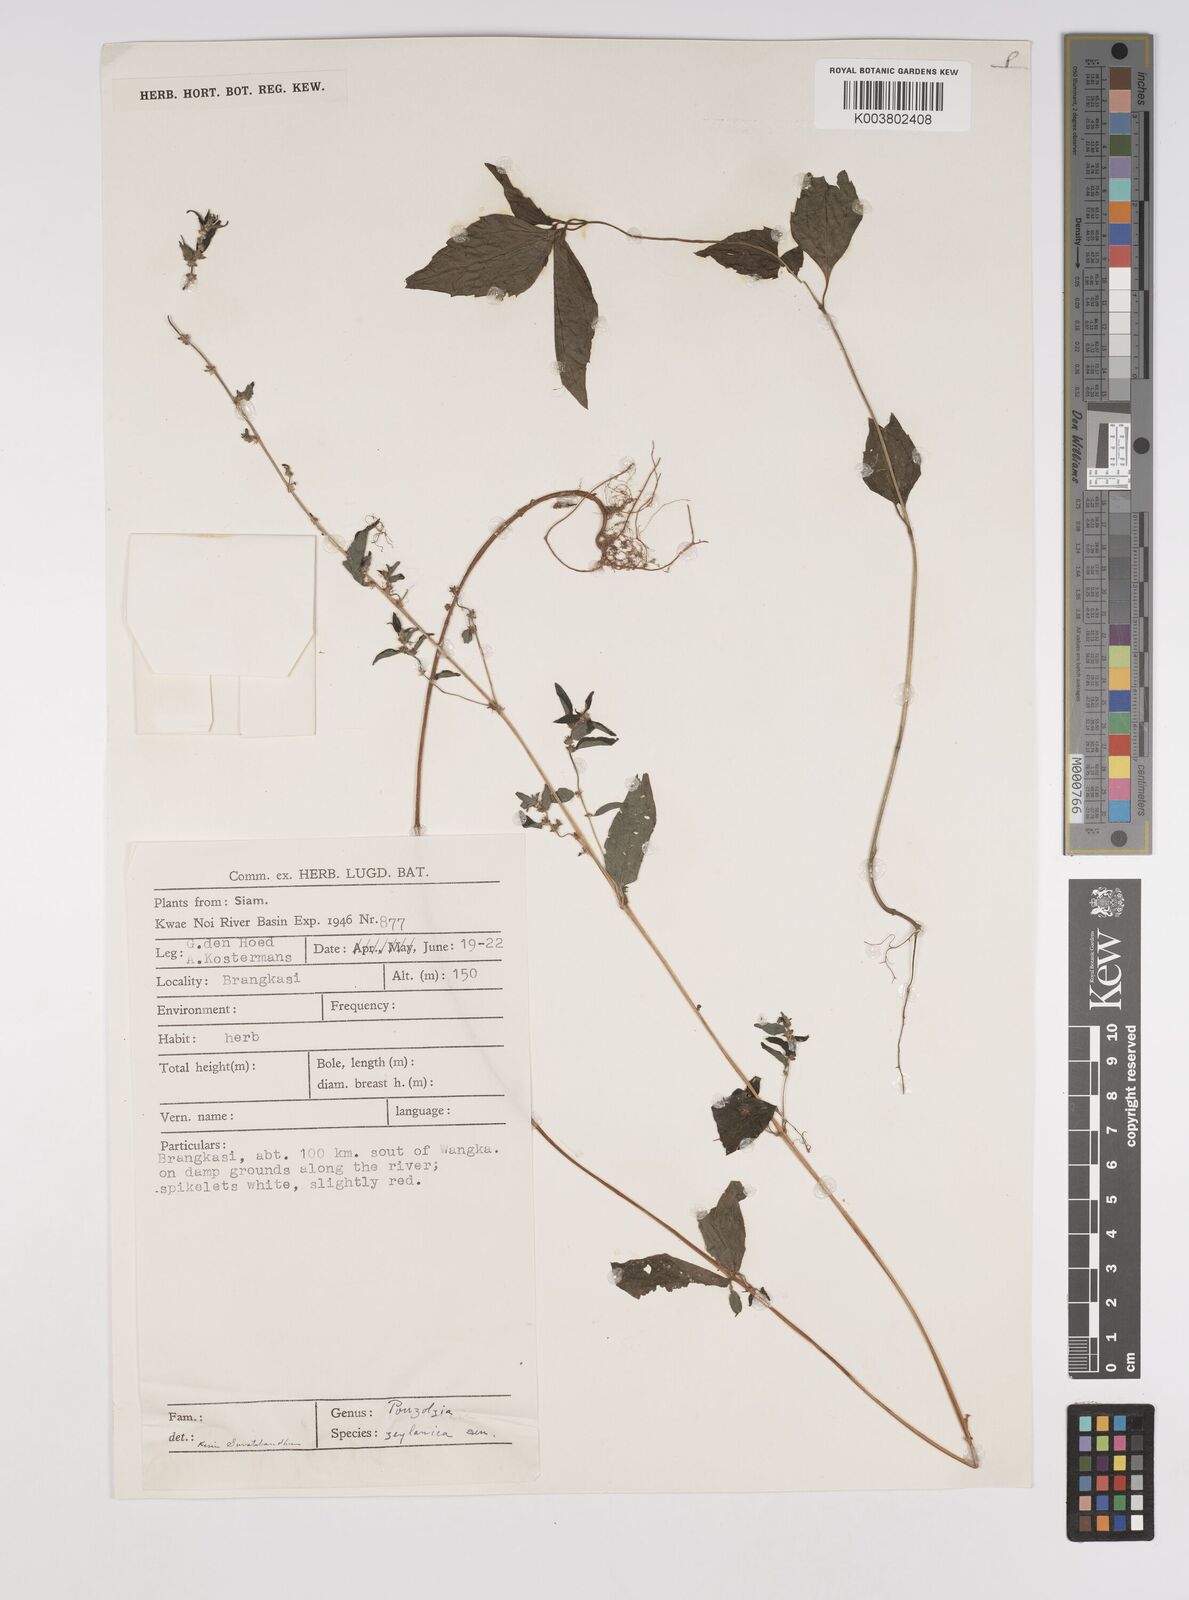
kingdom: Plantae
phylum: Tracheophyta
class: Magnoliopsida
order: Rosales
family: Urticaceae
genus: Pouzolzia
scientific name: Pouzolzia zeylanica
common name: Graceful pouzolzsbush
